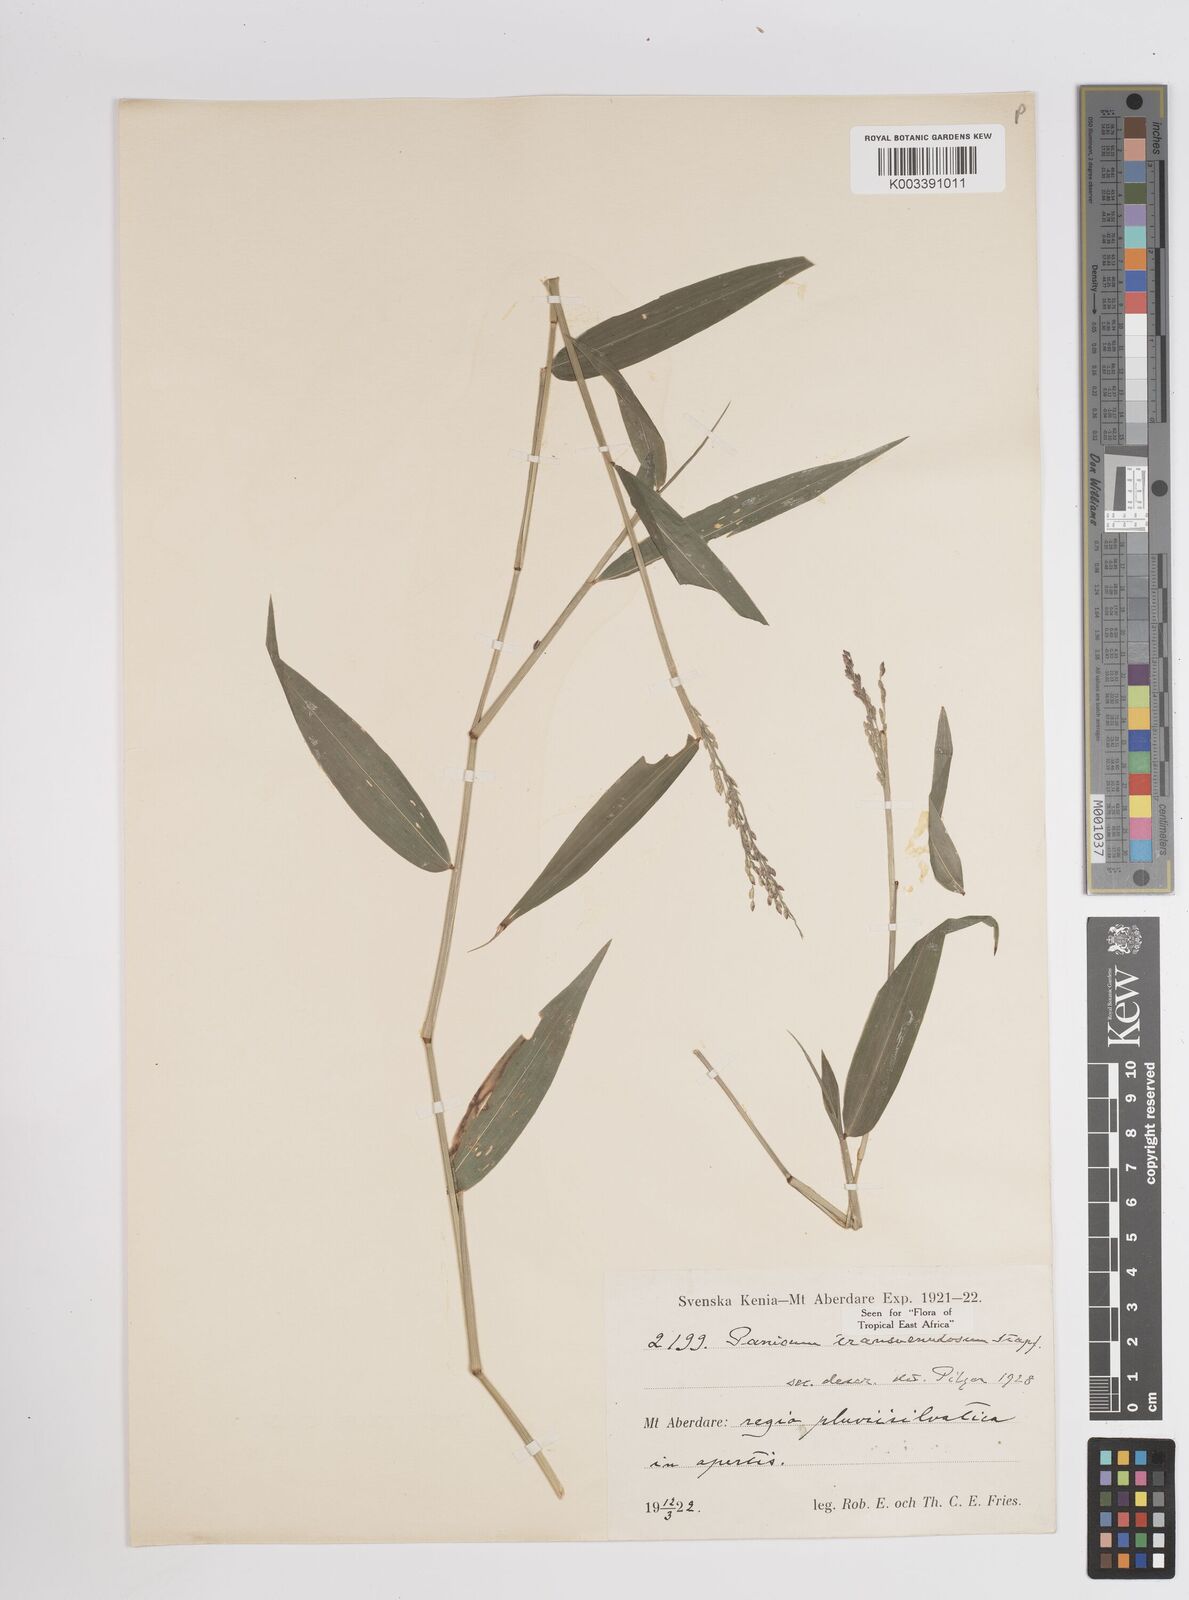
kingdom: Plantae
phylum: Tracheophyta
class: Liliopsida
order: Poales
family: Poaceae
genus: Panicum
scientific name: Panicum monticola
